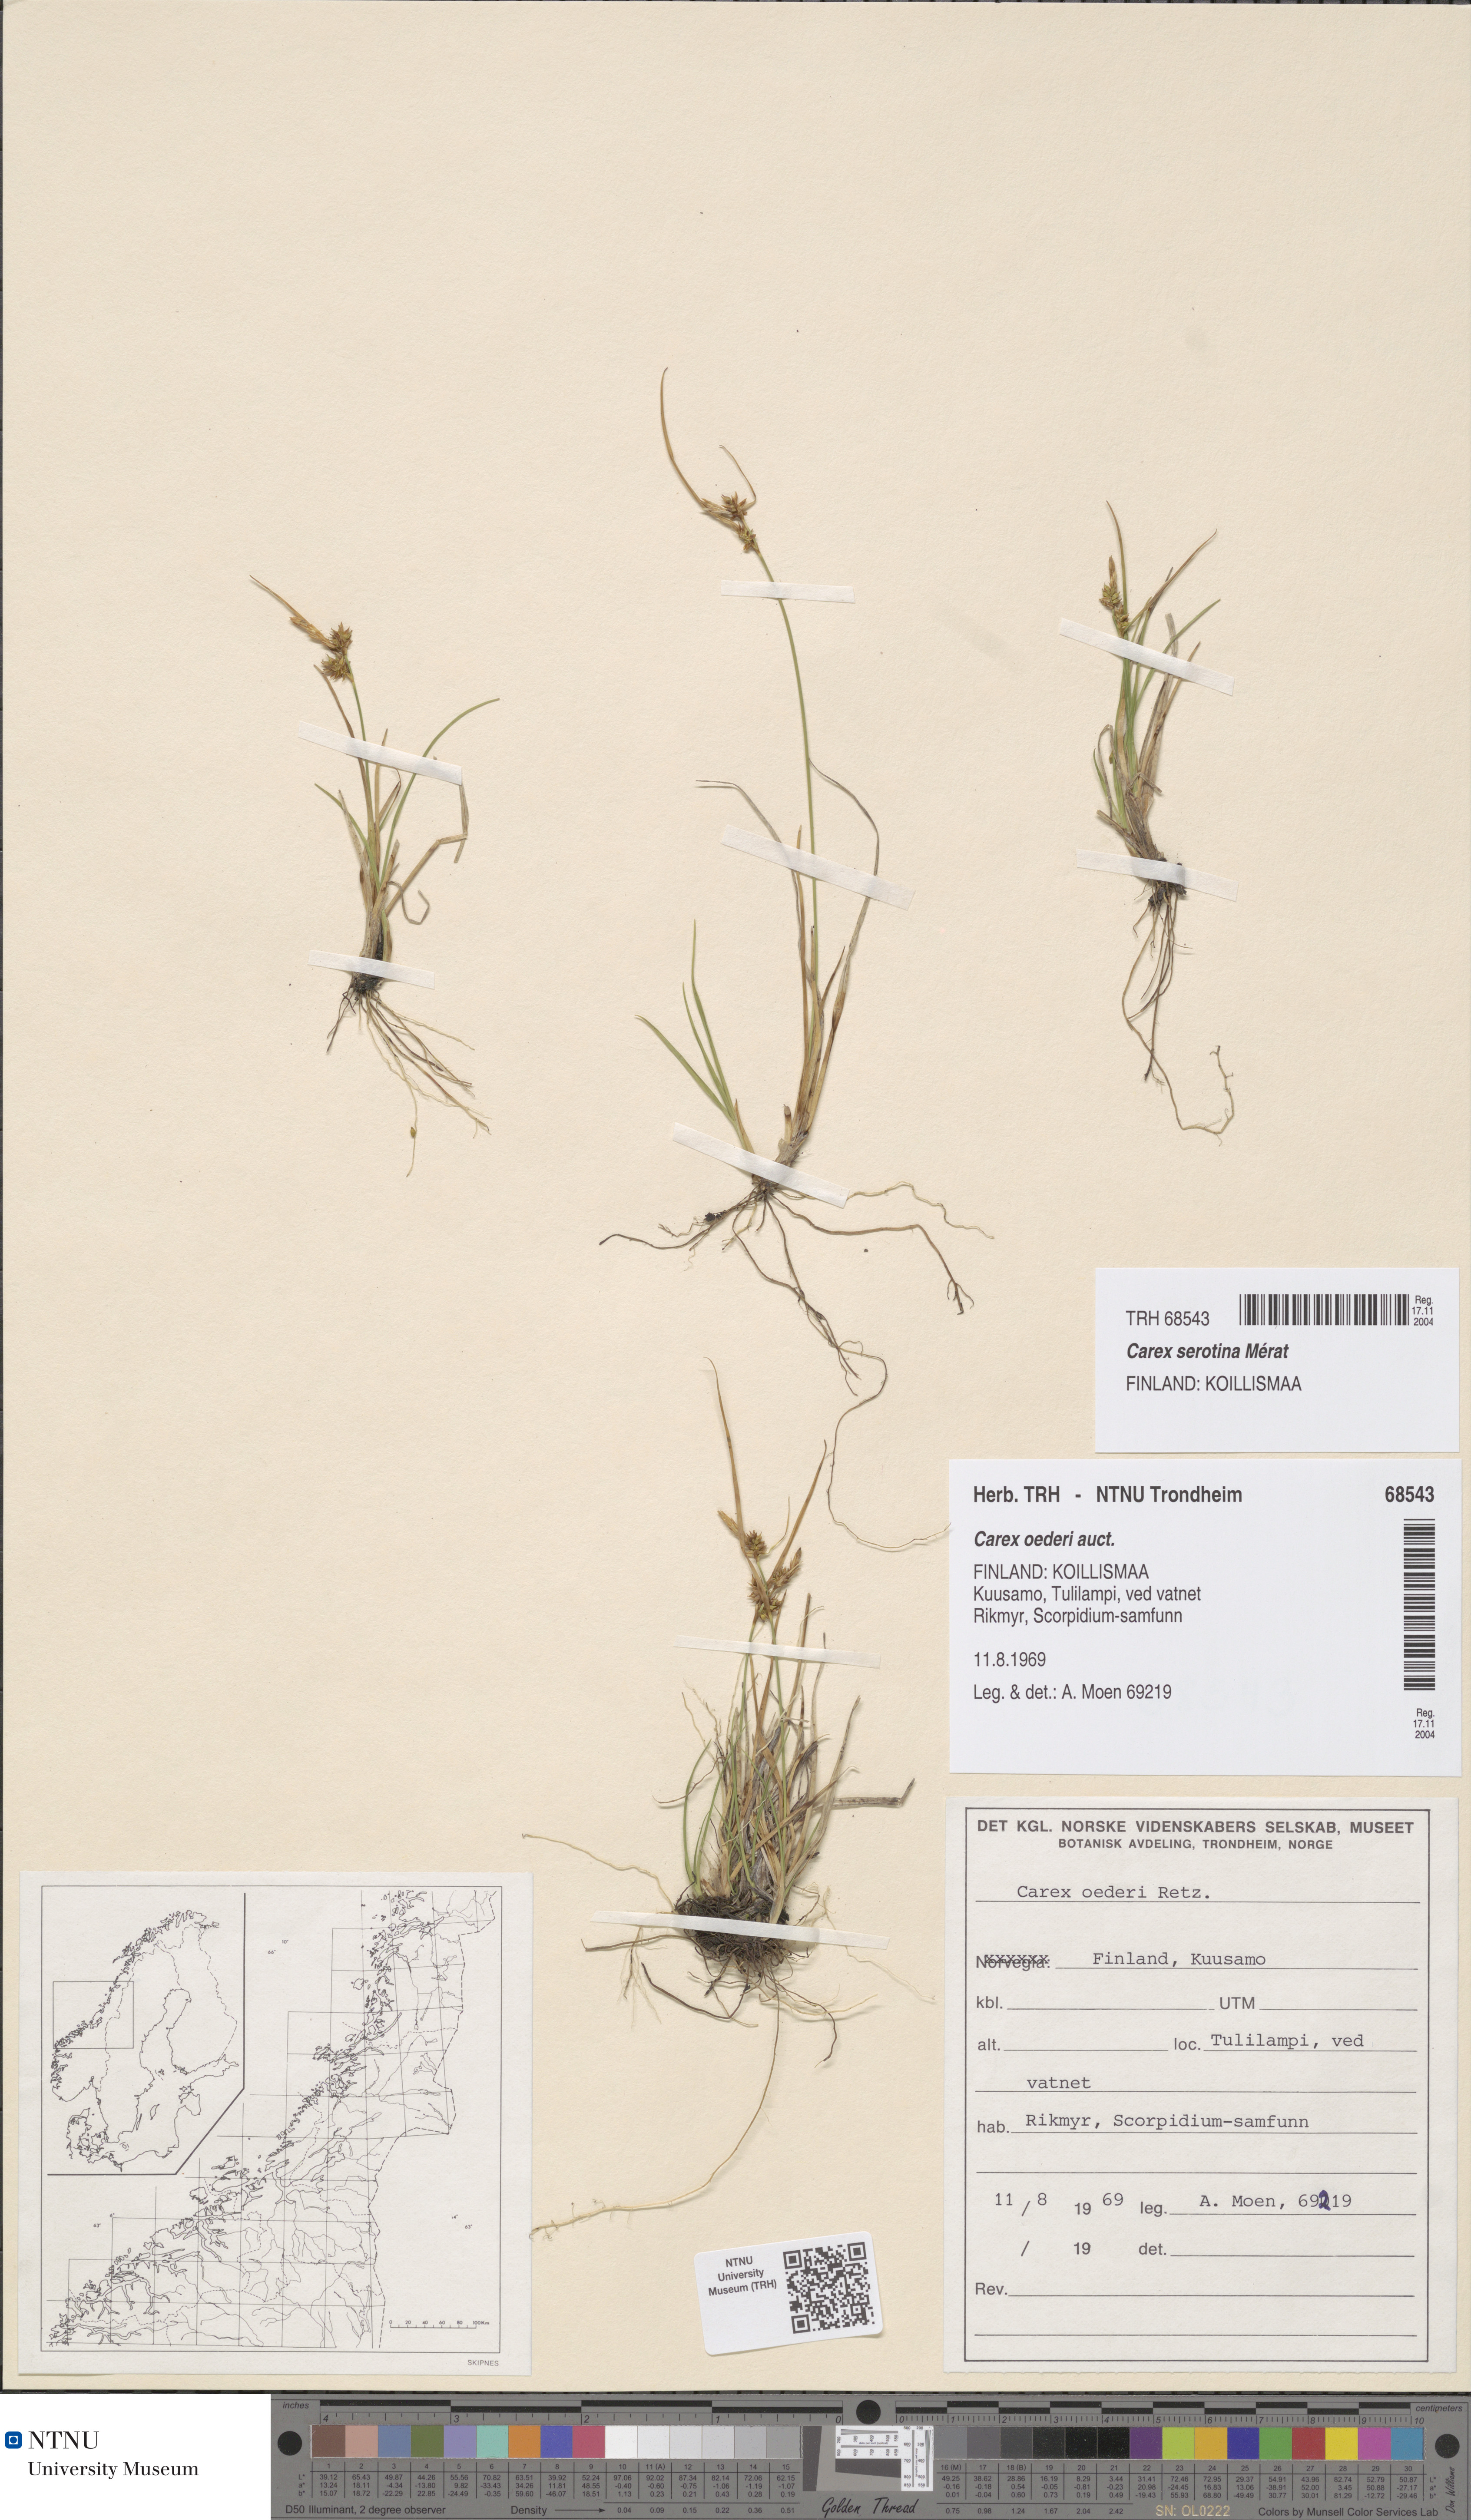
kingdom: Plantae
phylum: Tracheophyta
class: Liliopsida
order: Poales
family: Cyperaceae
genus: Carex
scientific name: Carex oederi
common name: Common & small-fruited yellow-sedge
